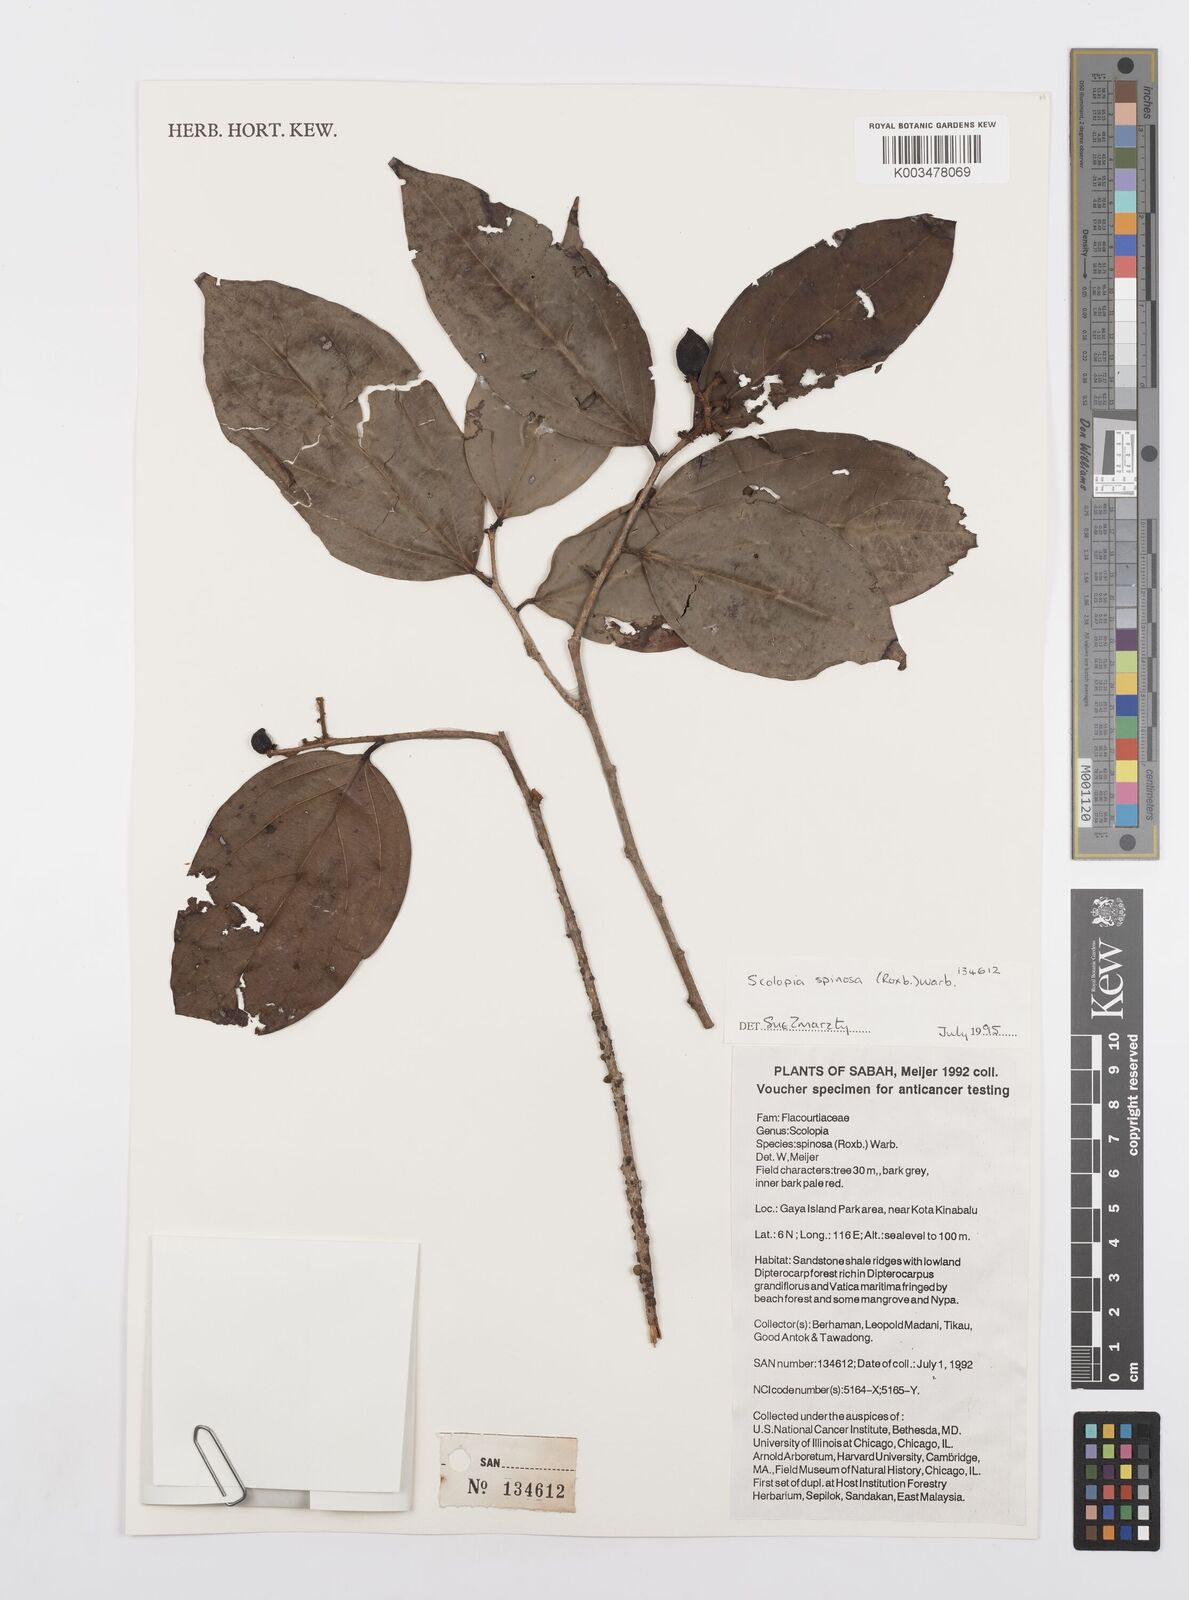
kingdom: Plantae
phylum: Tracheophyta
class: Magnoliopsida
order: Malpighiales
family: Salicaceae
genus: Scolopia
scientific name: Scolopia spinosa
